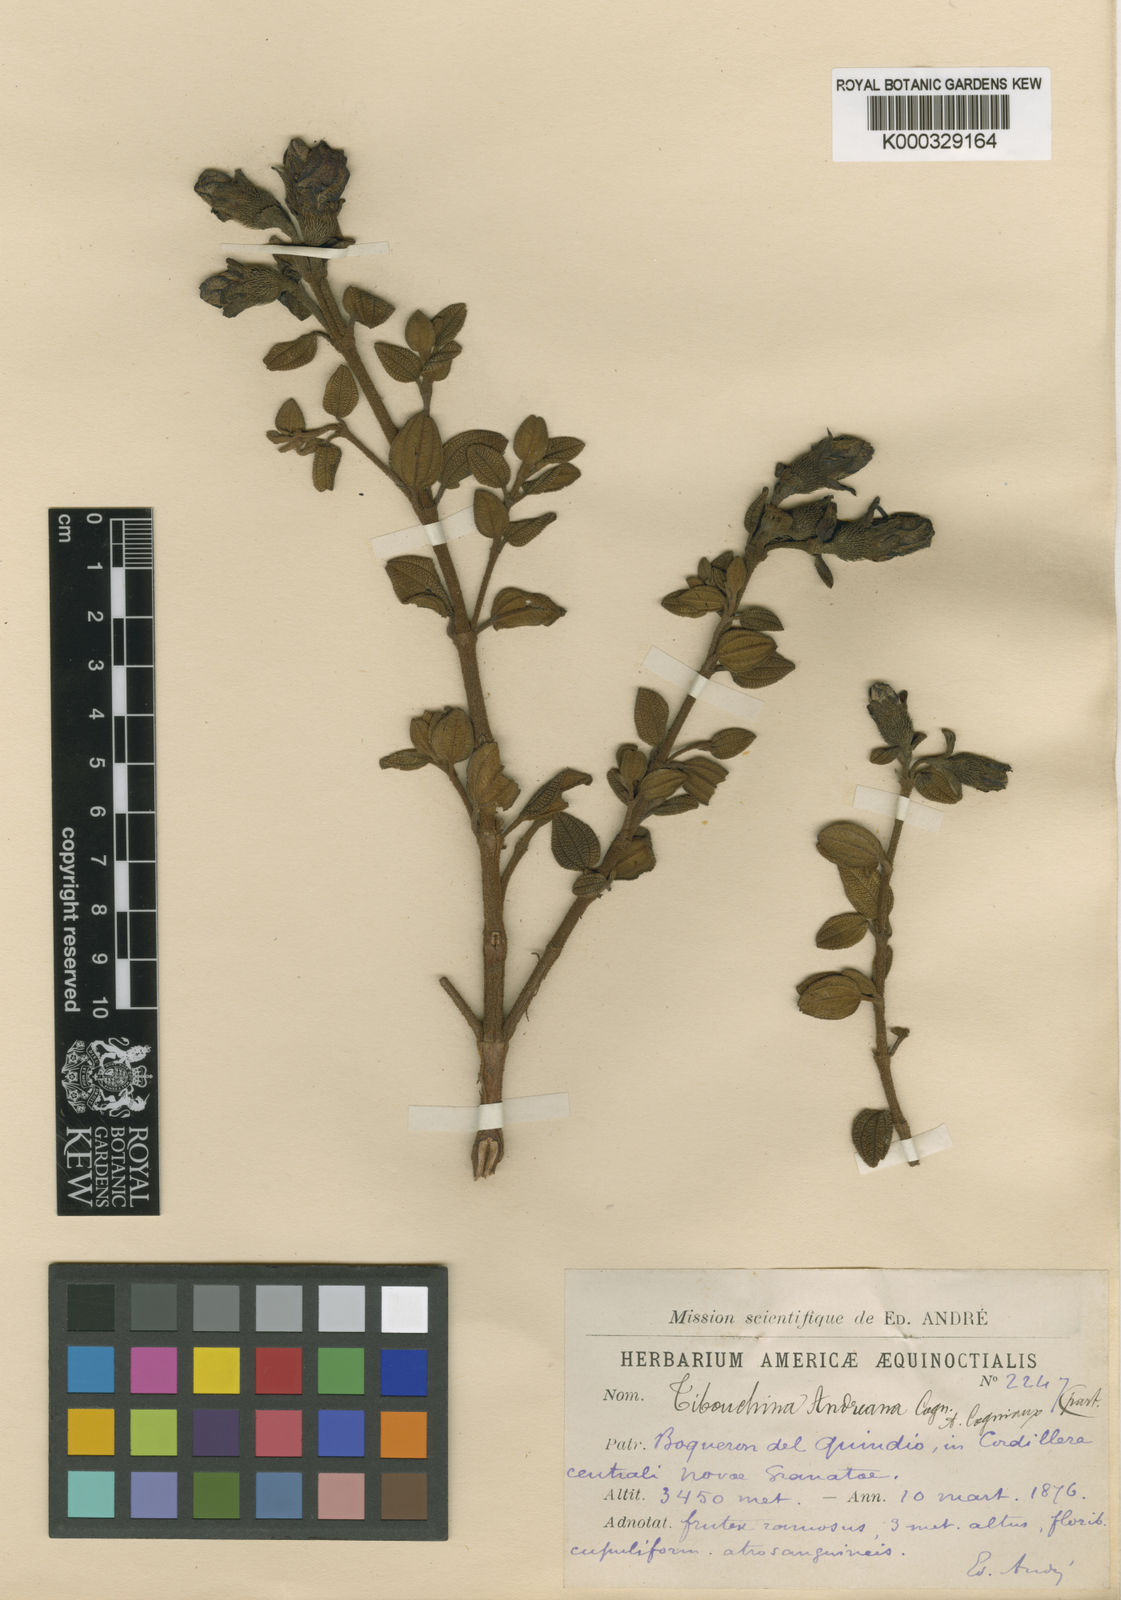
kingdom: Plantae
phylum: Tracheophyta
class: Magnoliopsida
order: Myrtales
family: Melastomataceae
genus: Chaetogastra
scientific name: Chaetogastra andreana
